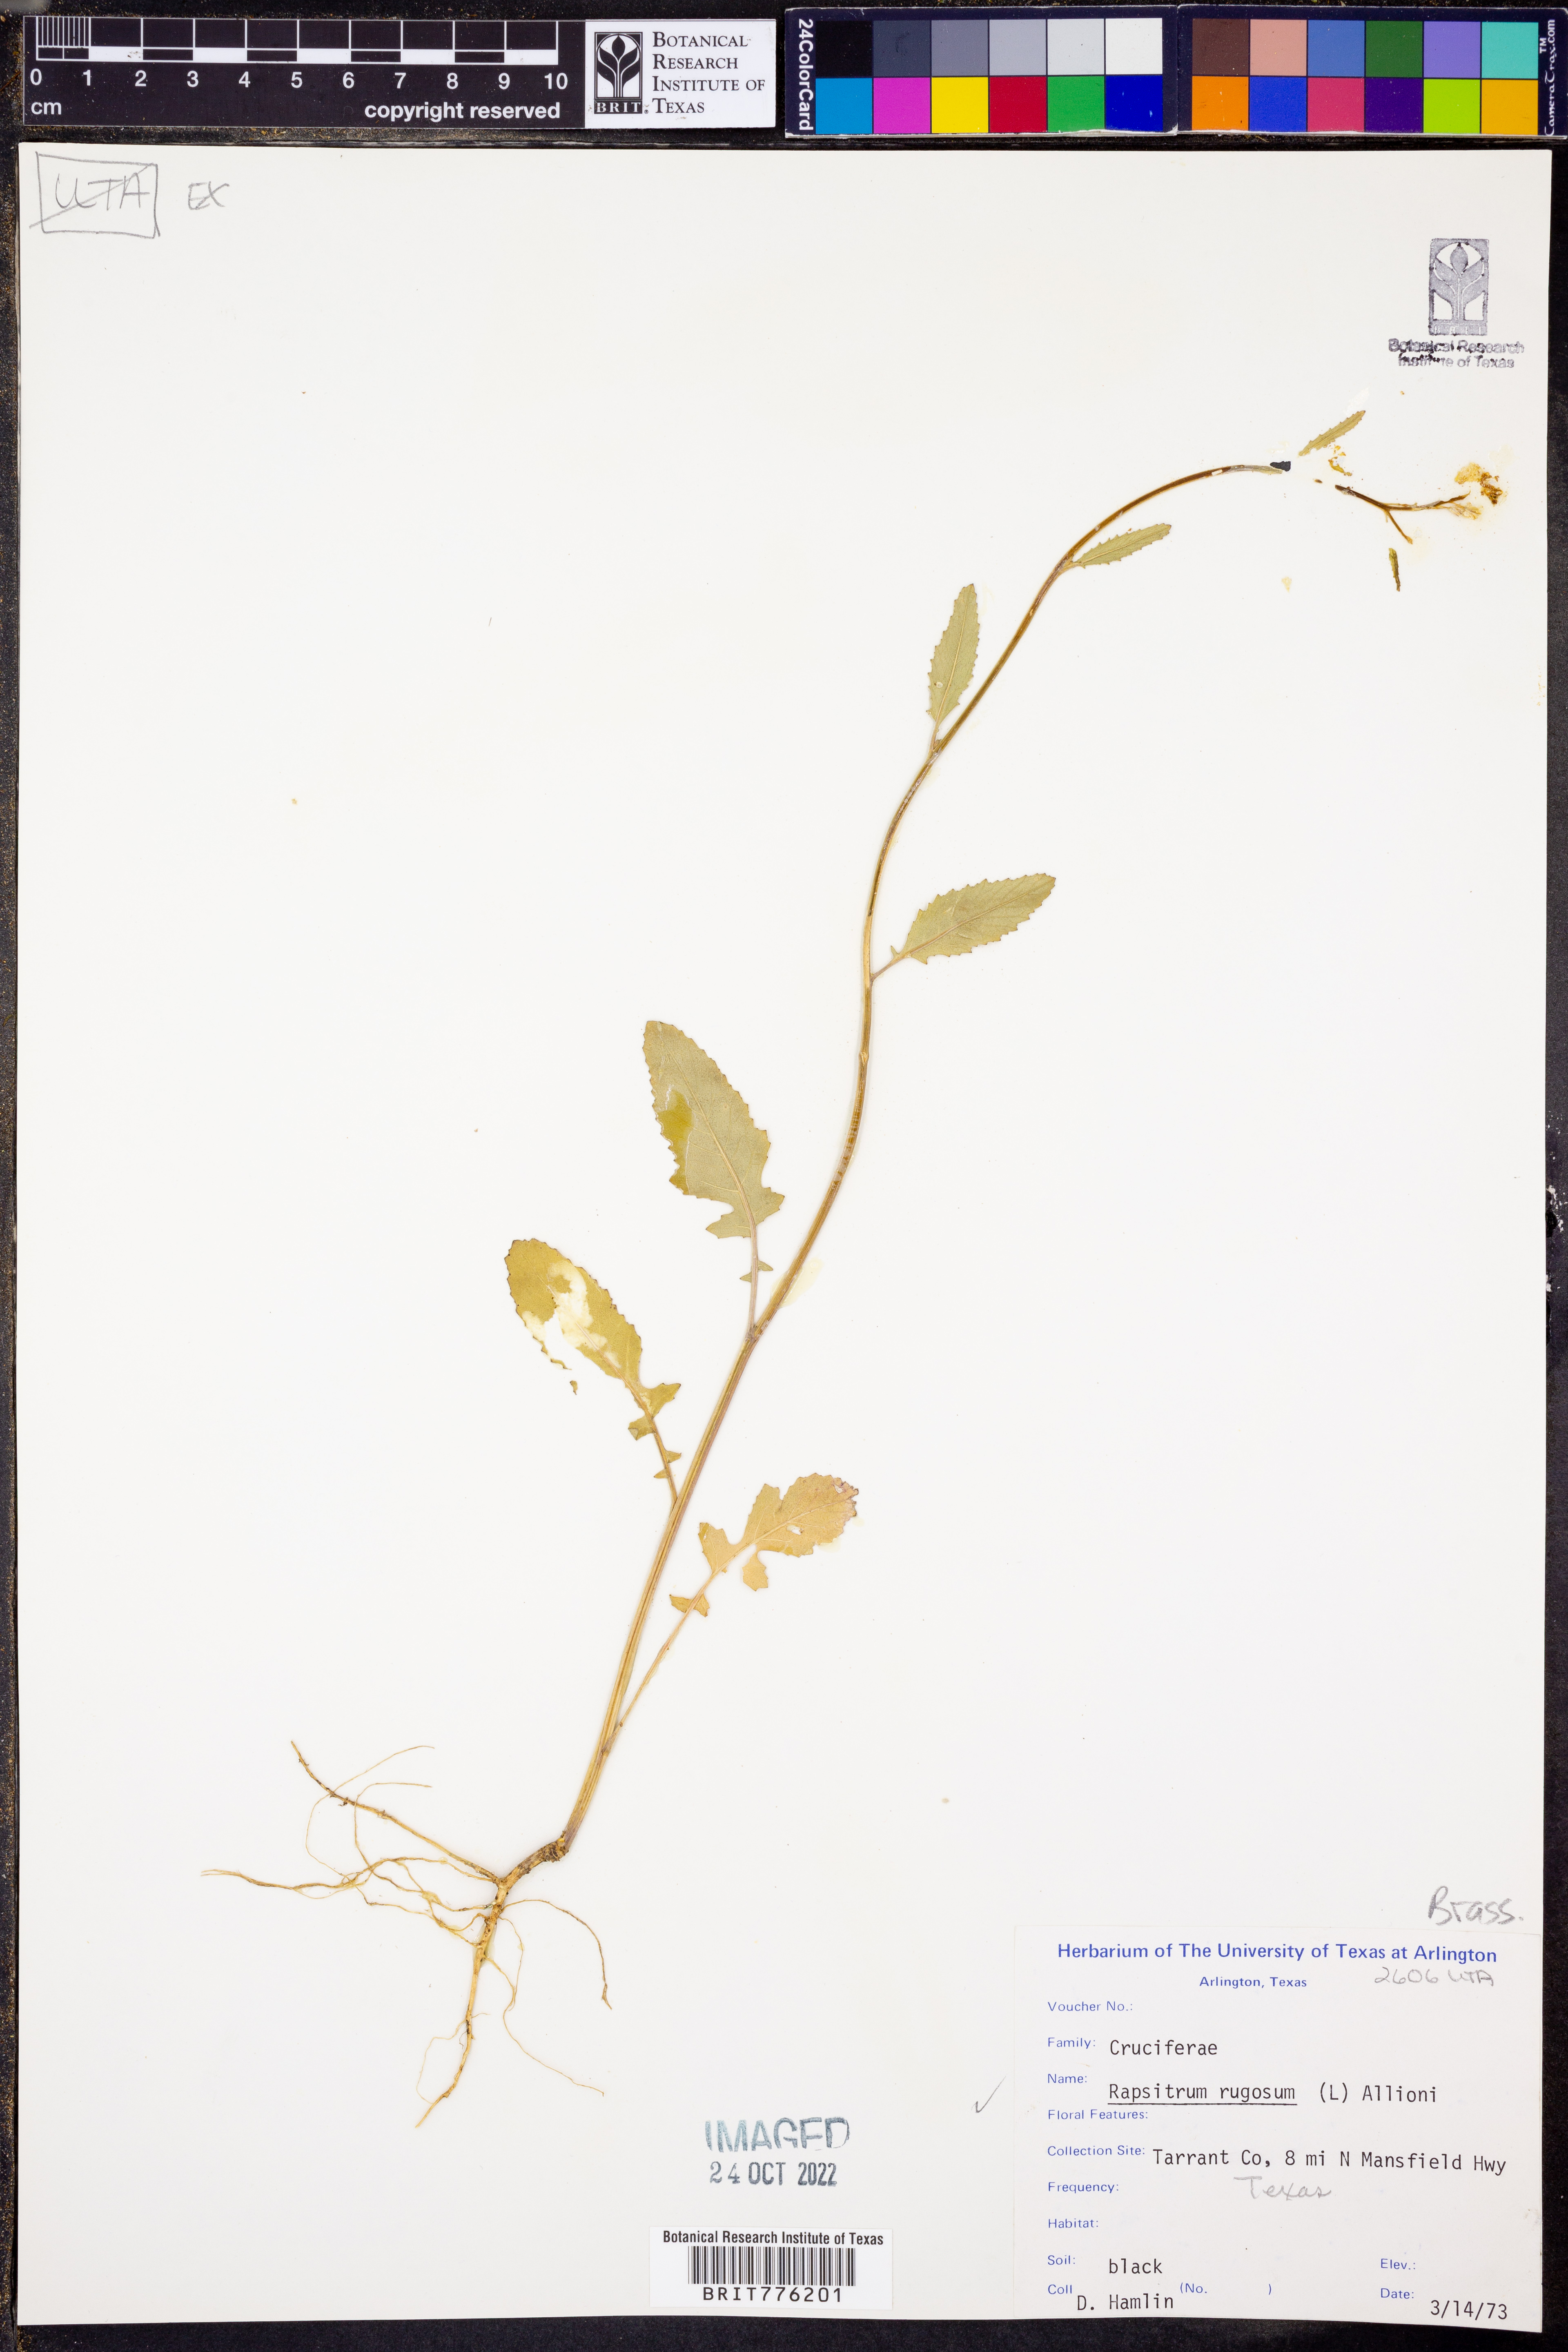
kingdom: Plantae
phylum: Tracheophyta
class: Magnoliopsida
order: Brassicales
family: Brassicaceae
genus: Rapistrum
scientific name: Rapistrum rugosum
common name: Annual bastardcabbage
